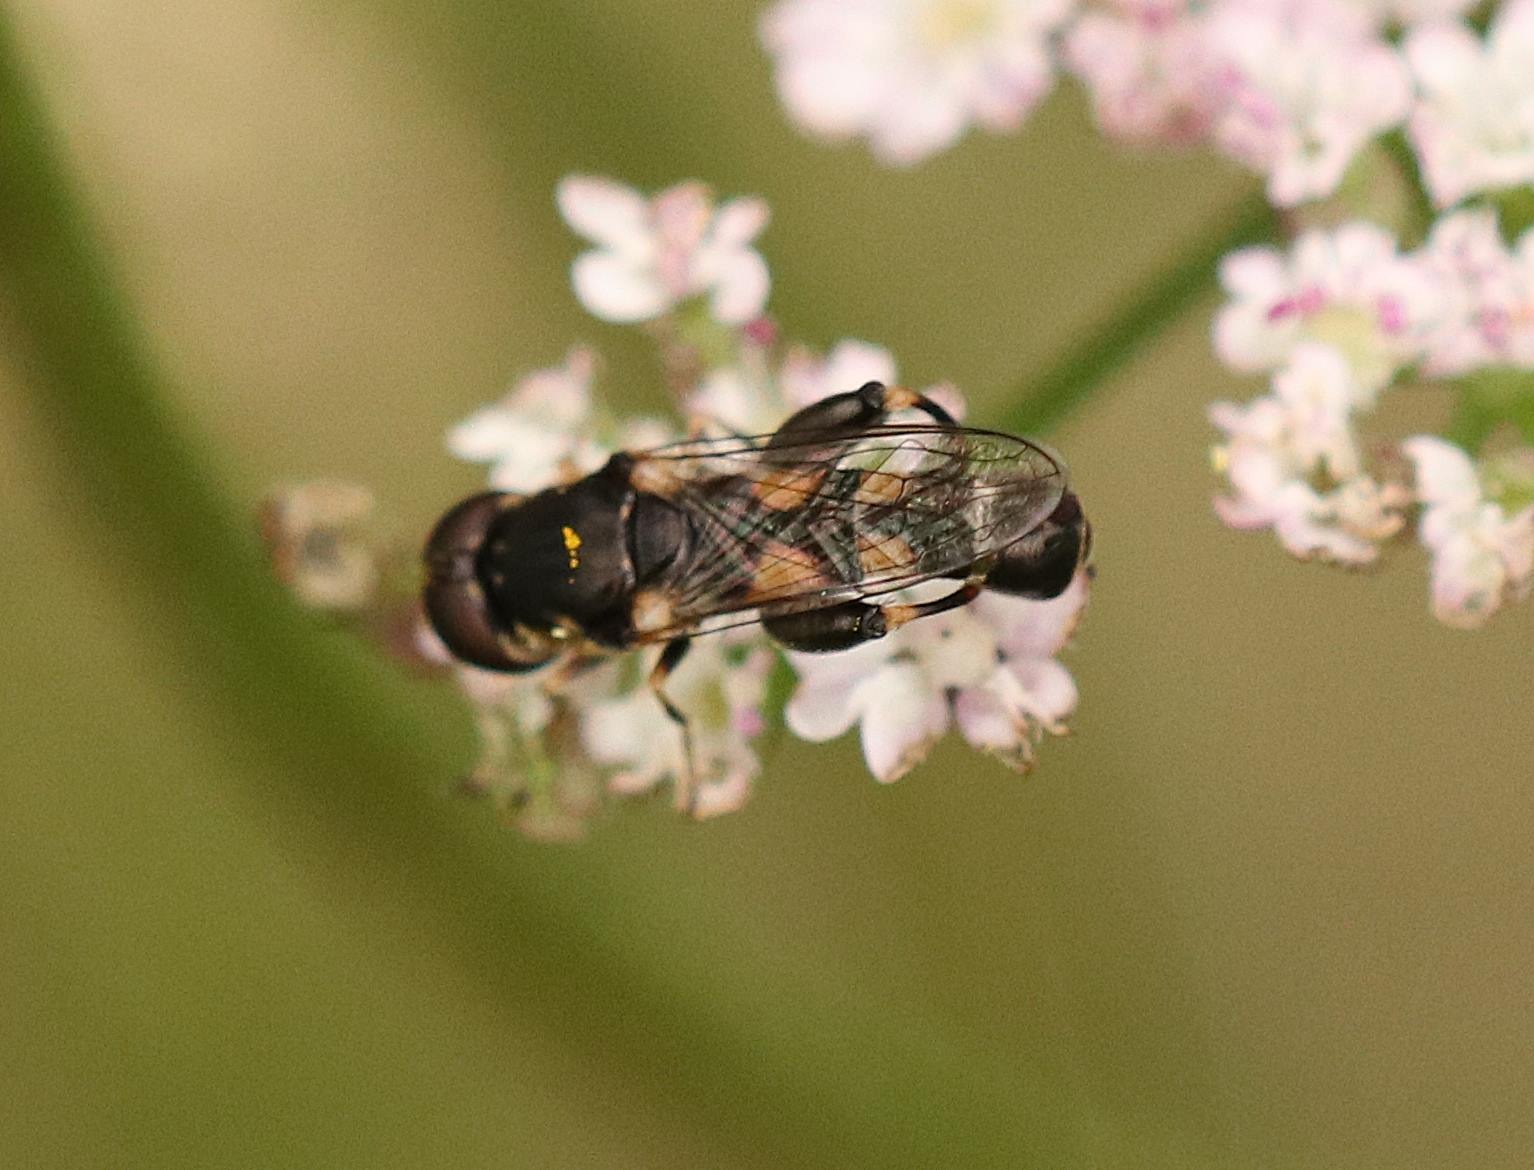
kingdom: Animalia
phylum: Arthropoda
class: Insecta
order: Diptera
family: Syrphidae
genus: Syritta
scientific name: Syritta pipiens
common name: Kompost-svirreflue
